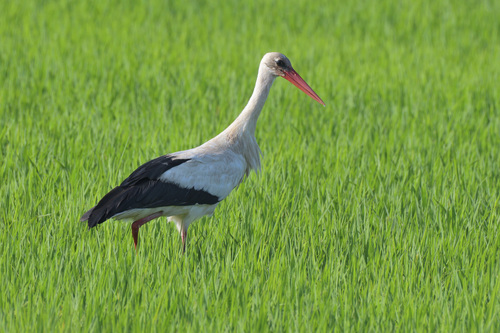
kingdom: Animalia
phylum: Chordata
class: Aves
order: Ciconiiformes
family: Ciconiidae
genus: Ciconia
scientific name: Ciconia ciconia
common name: White stork
